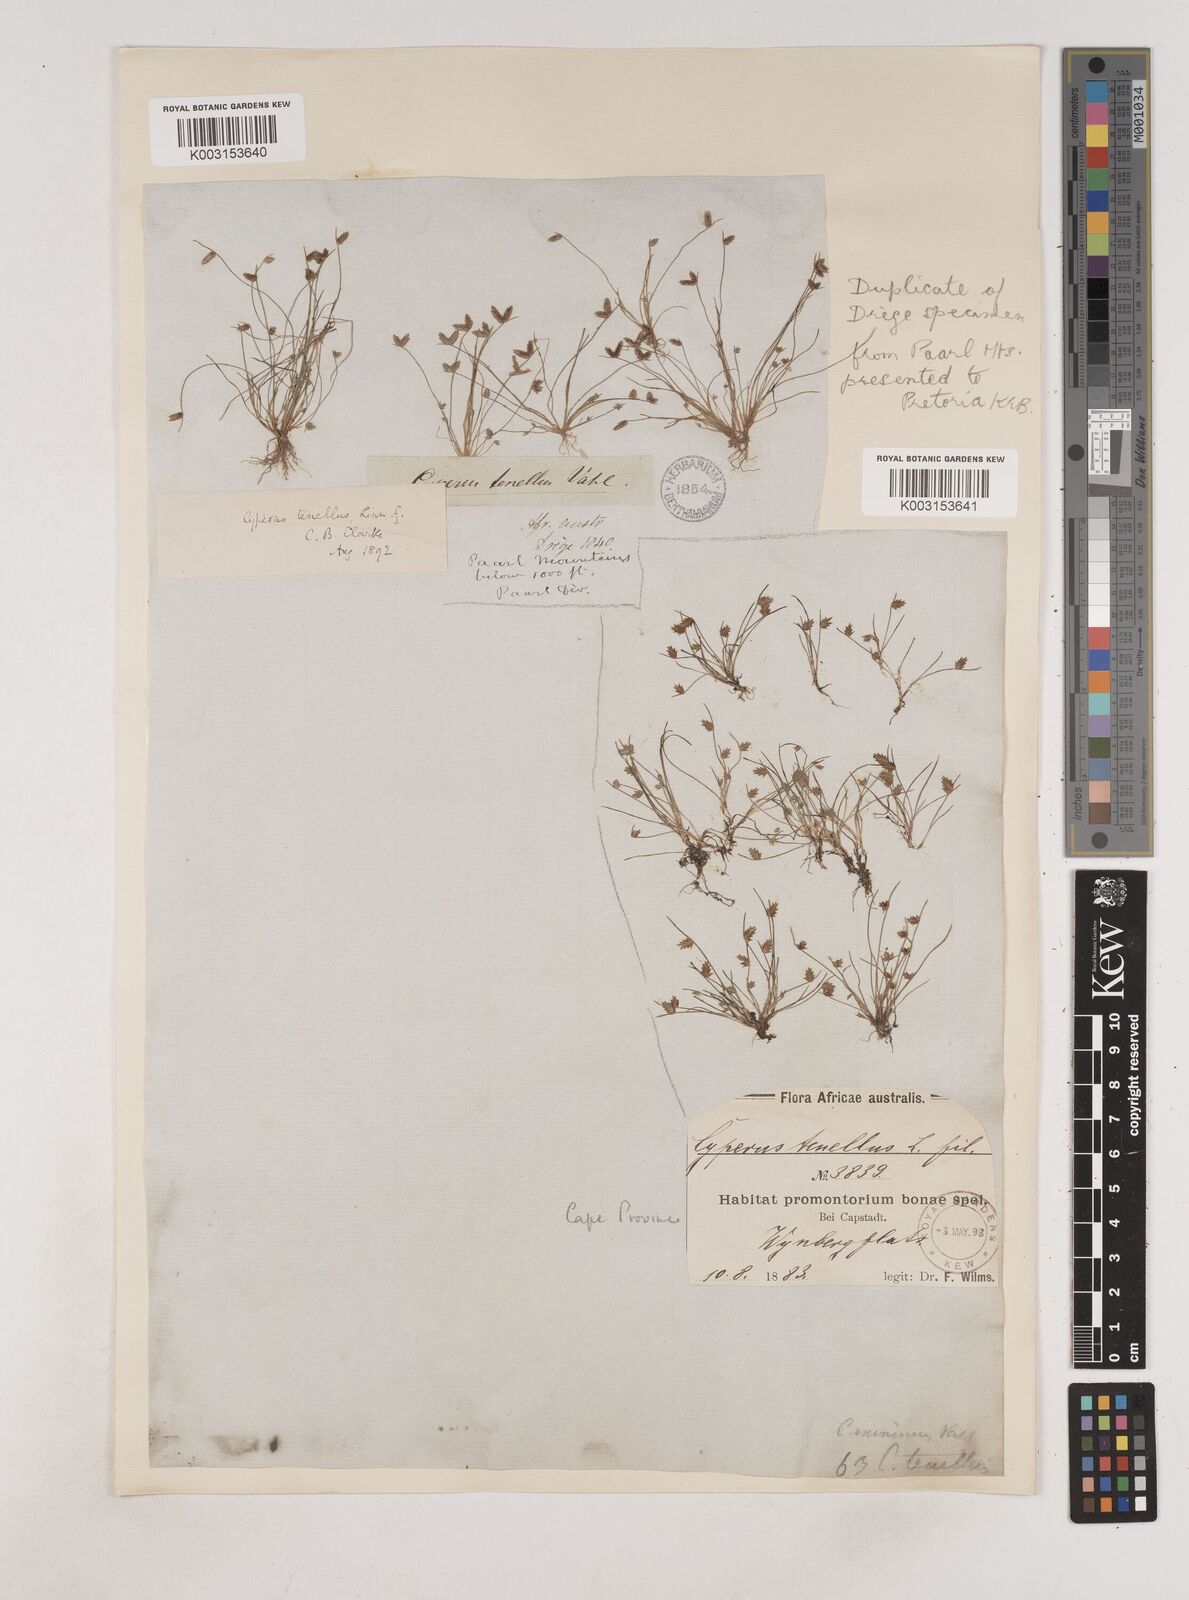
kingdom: Plantae
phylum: Tracheophyta
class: Liliopsida
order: Poales
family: Cyperaceae
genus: Isolepis
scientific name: Isolepis levynsiana
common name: Sedge
